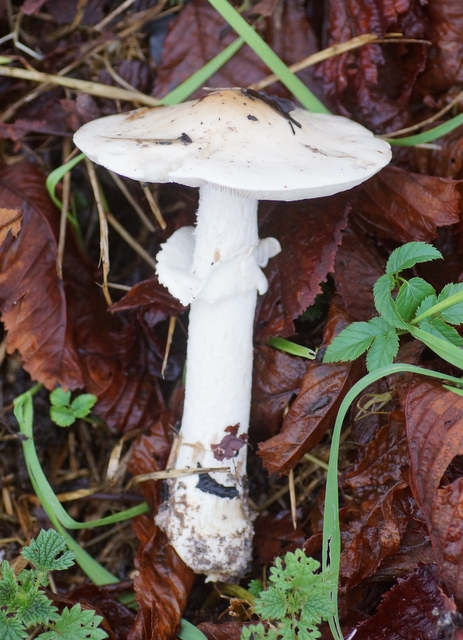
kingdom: Fungi
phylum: Basidiomycota
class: Agaricomycetes
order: Agaricales
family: Amanitaceae
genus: Limacellopsis
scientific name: Limacellopsis guttata
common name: tåre-snekkehat
